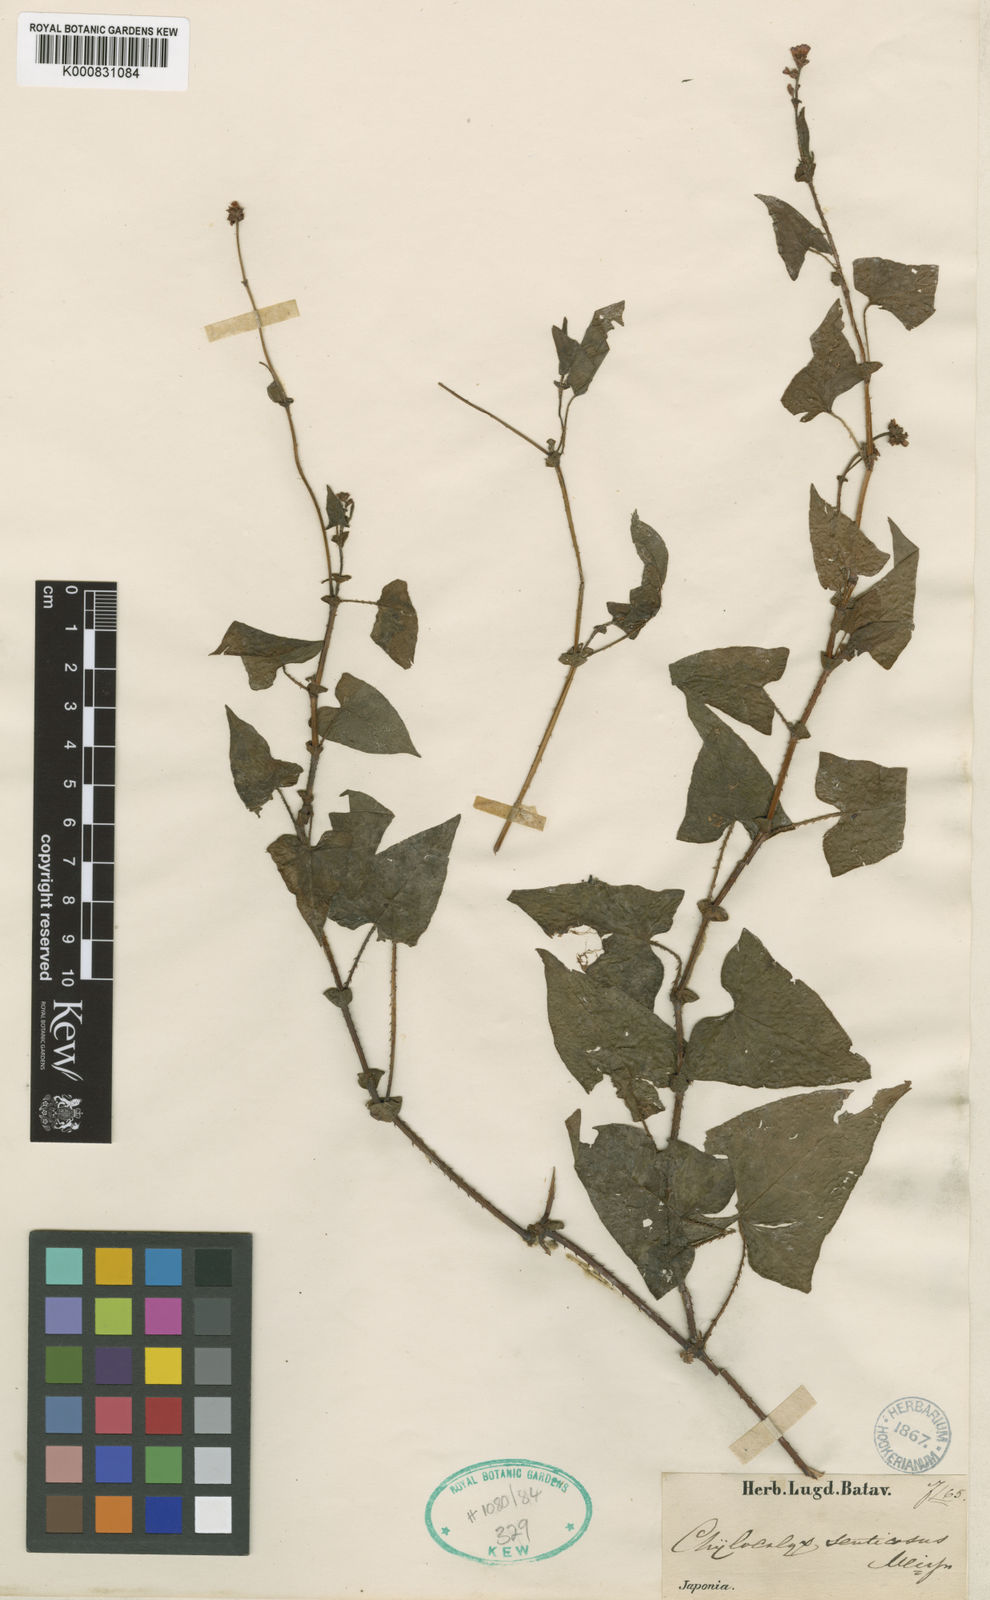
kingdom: Plantae
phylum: Tracheophyta
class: Magnoliopsida
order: Caryophyllales
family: Polygonaceae
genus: Persicaria
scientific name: Persicaria
